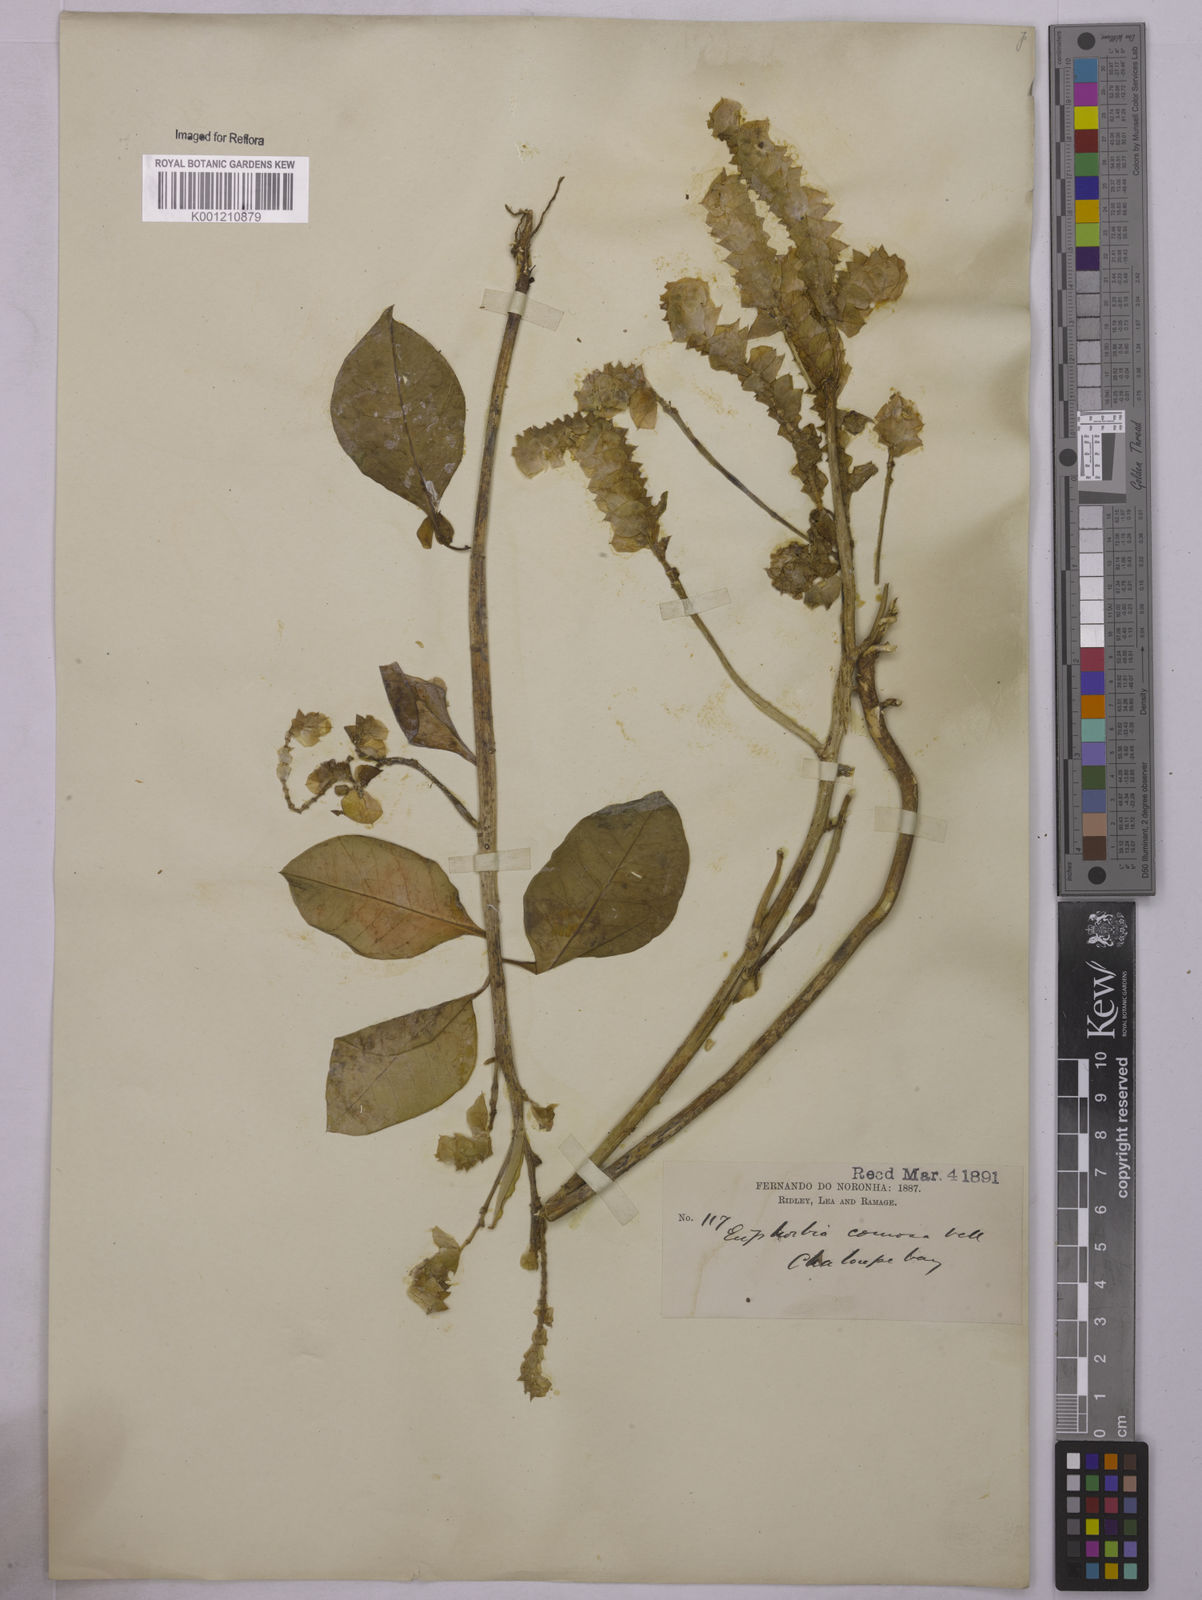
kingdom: Plantae
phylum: Tracheophyta
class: Magnoliopsida
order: Malpighiales
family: Euphorbiaceae
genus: Euphorbia
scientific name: Euphorbia comosa
